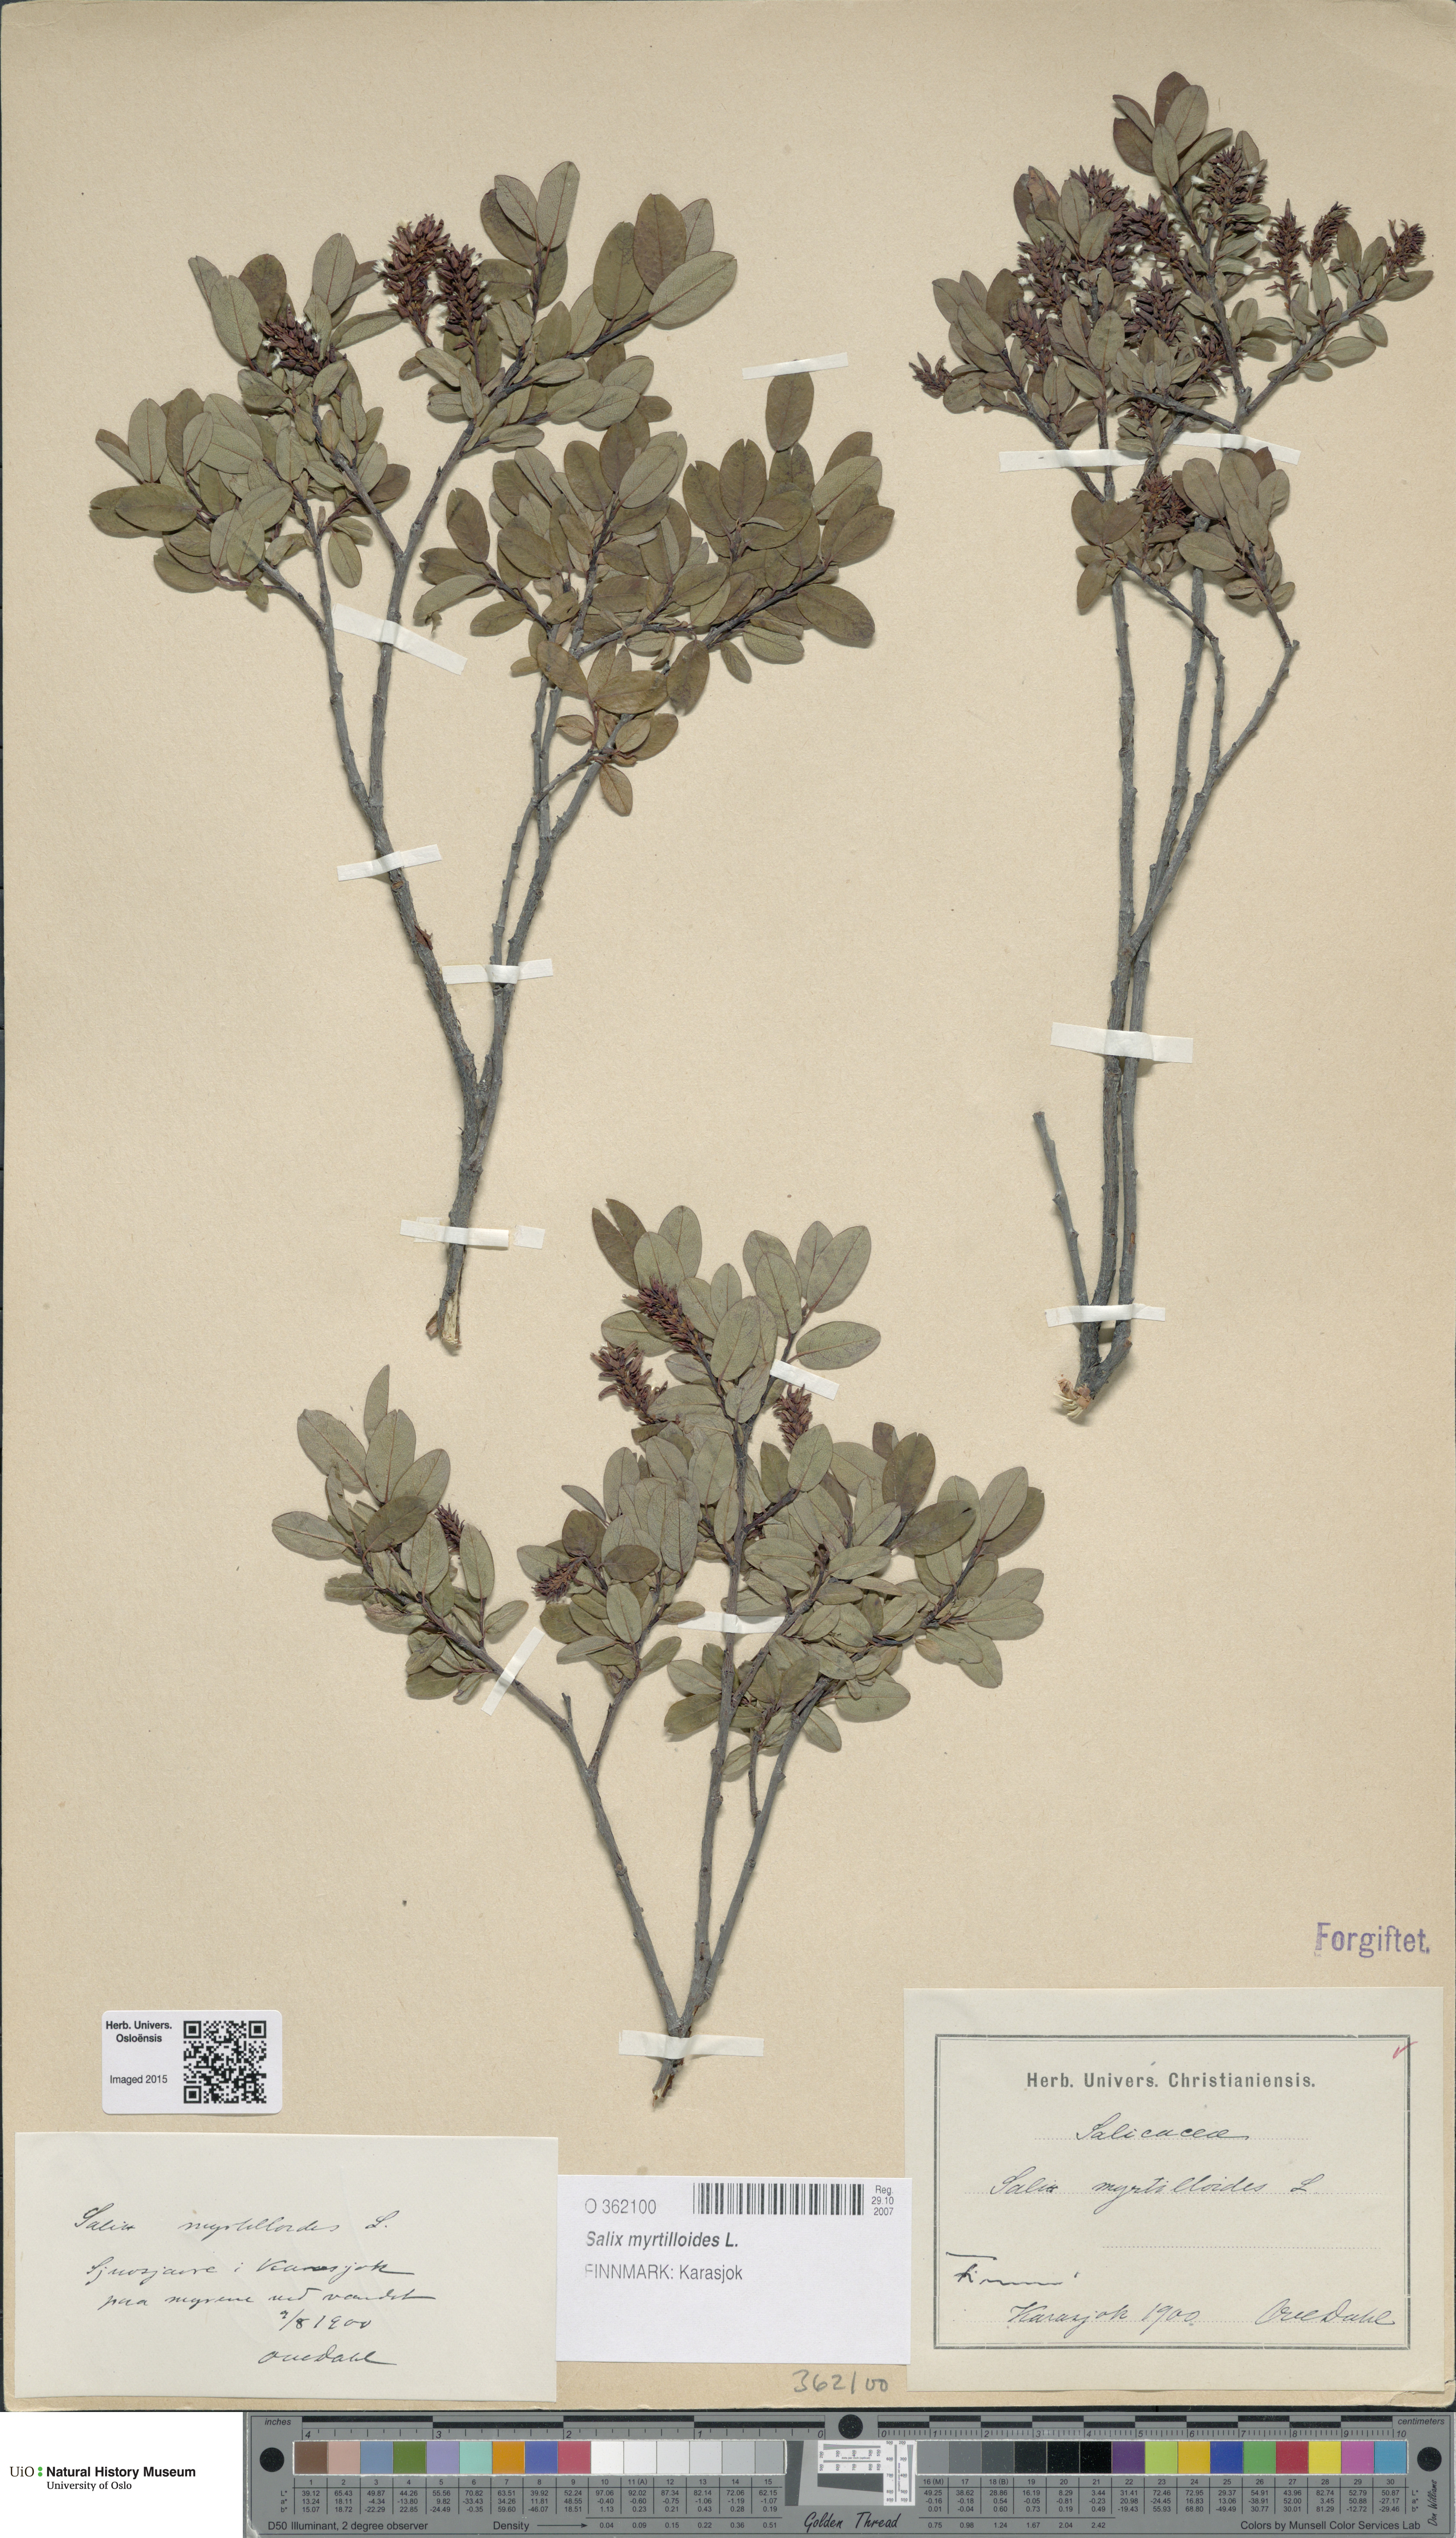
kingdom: Plantae
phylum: Tracheophyta
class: Magnoliopsida
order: Malpighiales
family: Salicaceae
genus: Salix
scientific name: Salix myrtilloides
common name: Myrtle-leaved willow
